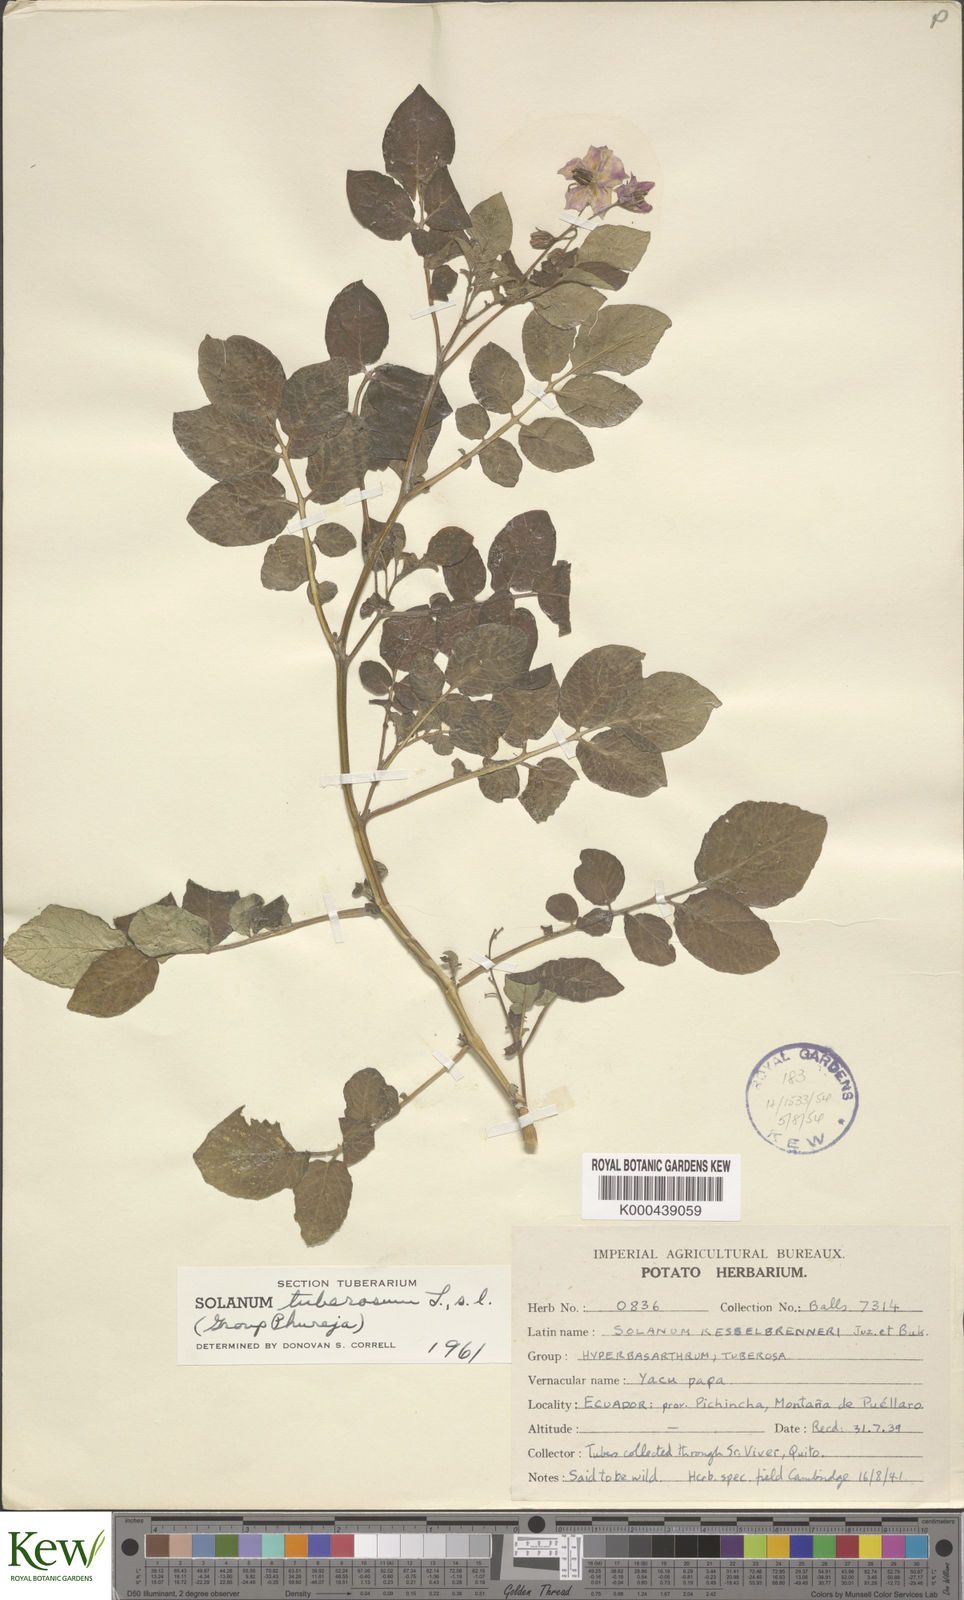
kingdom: Plantae
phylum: Tracheophyta
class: Magnoliopsida
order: Solanales
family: Solanaceae
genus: Solanum
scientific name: Solanum tuberosum
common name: Potato
